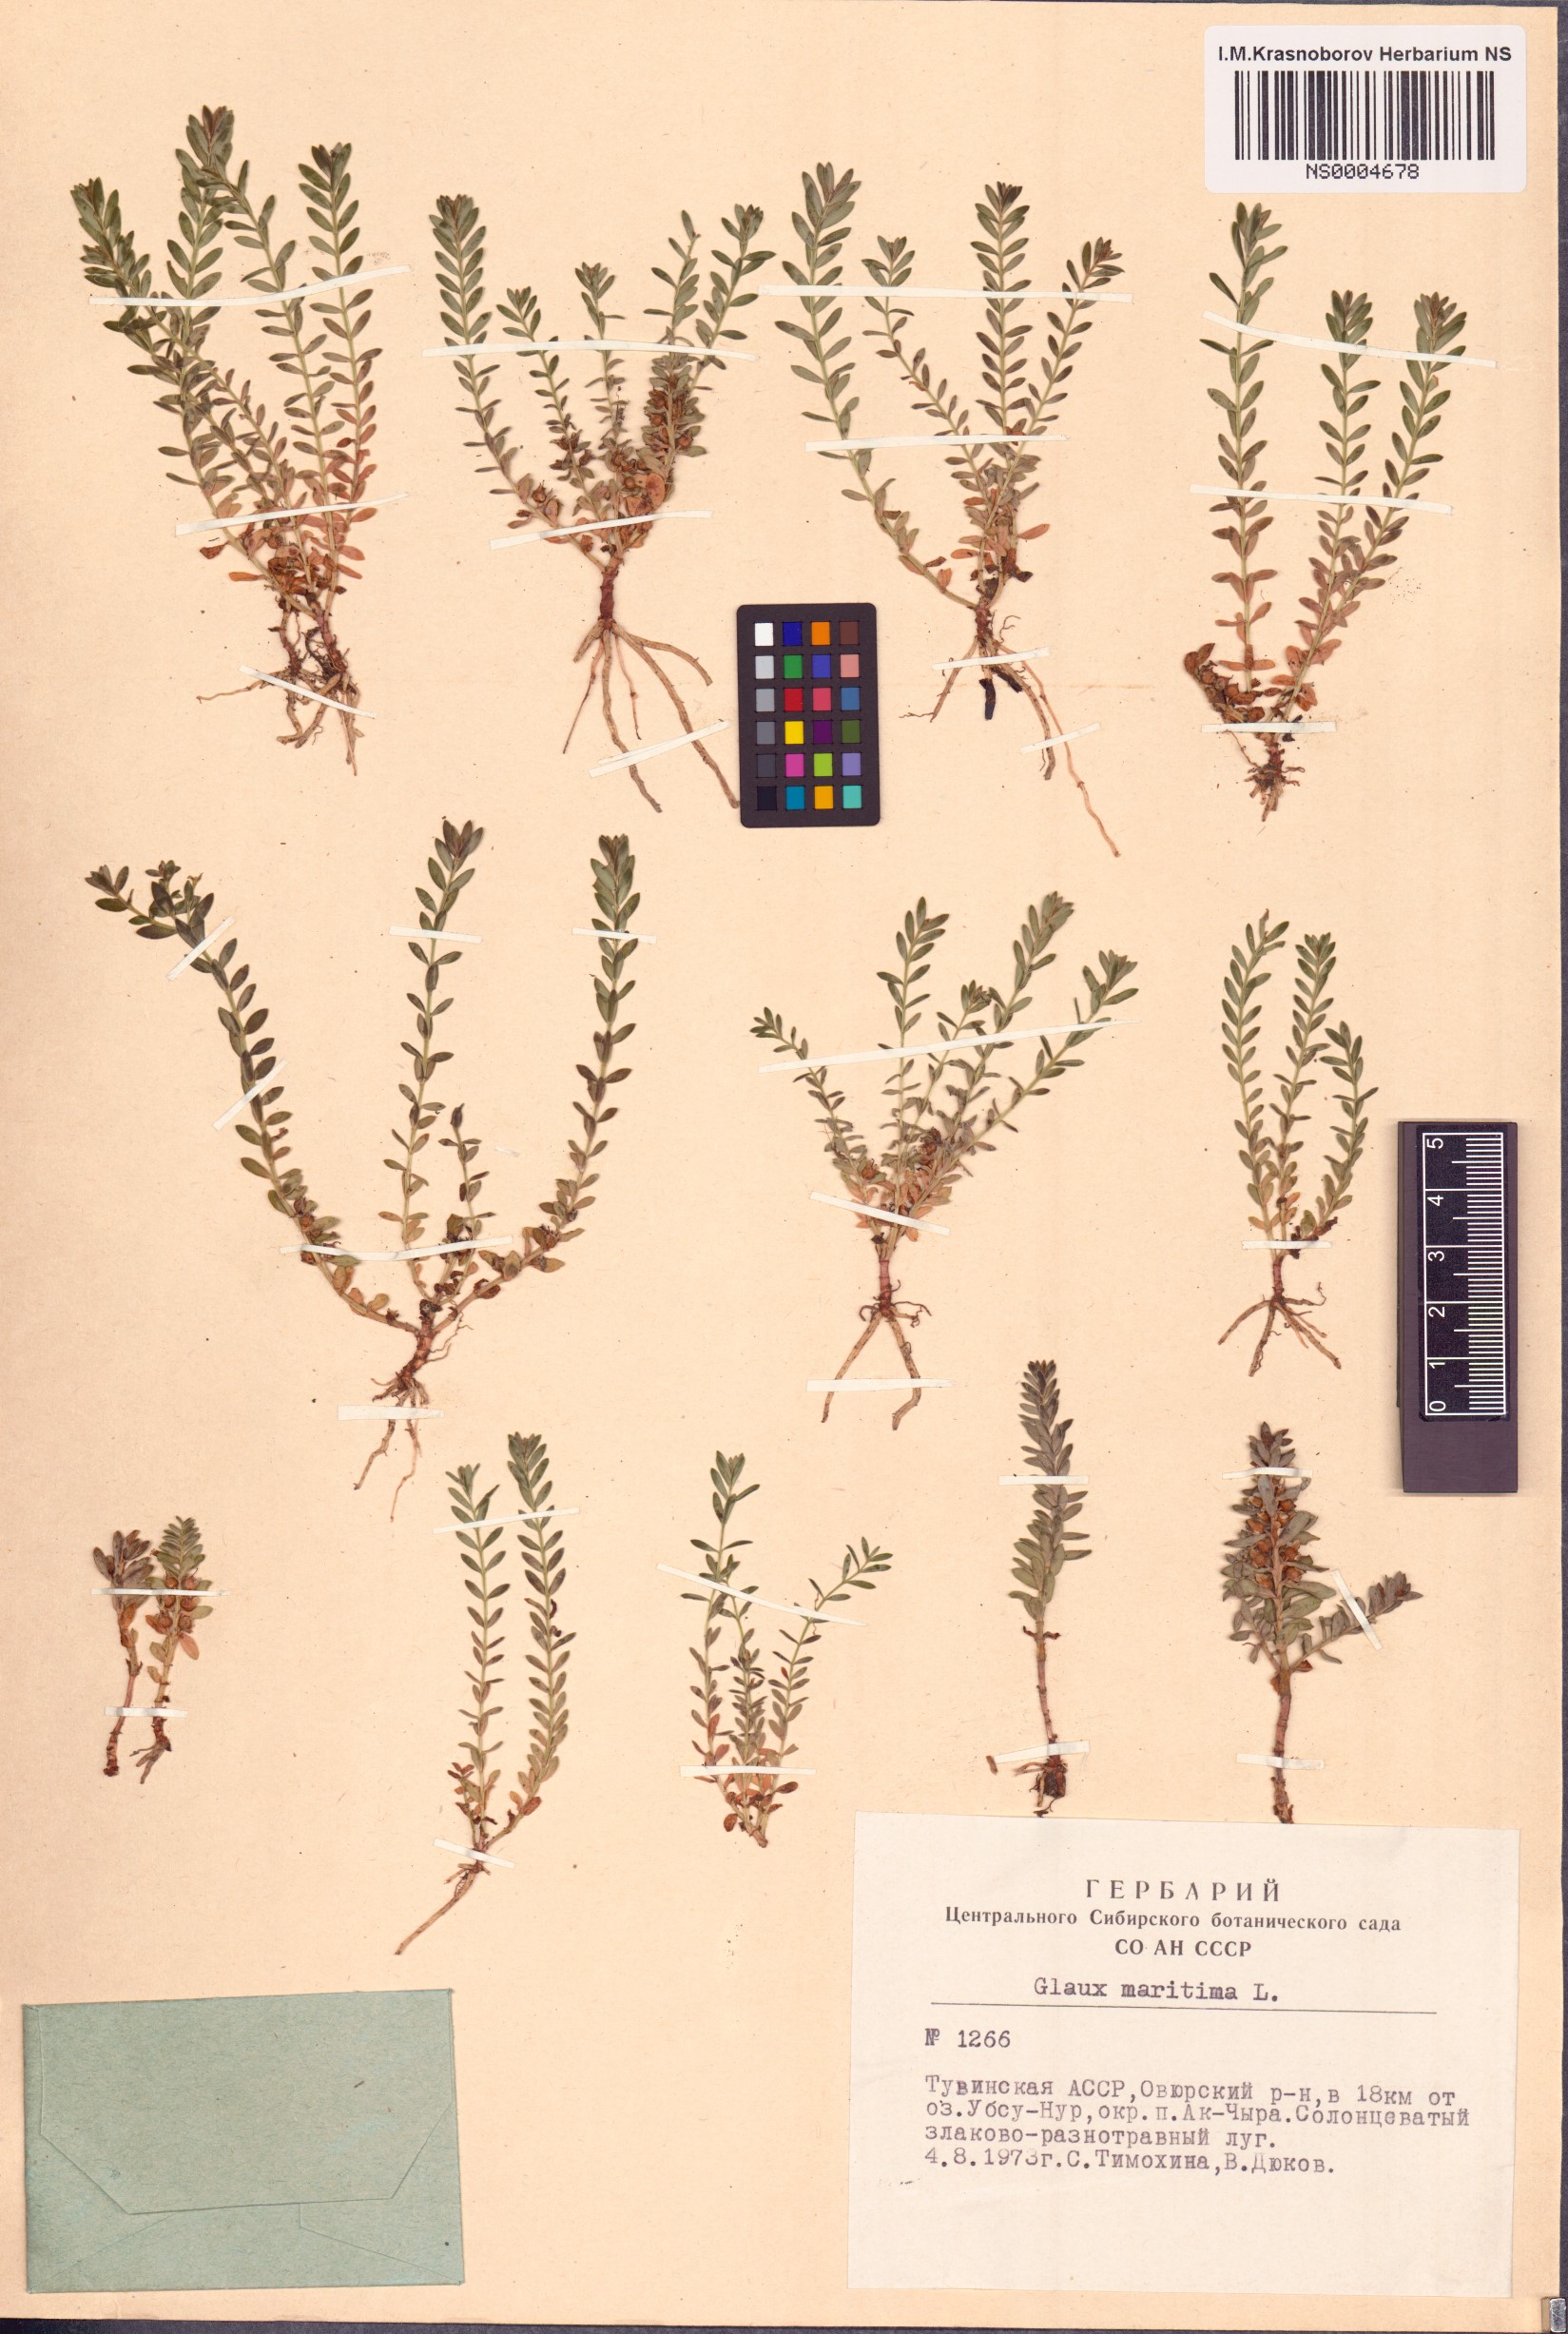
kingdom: Plantae
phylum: Tracheophyta
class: Magnoliopsida
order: Ericales
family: Primulaceae
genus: Lysimachia
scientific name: Lysimachia maritima
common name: Sea milkwort
